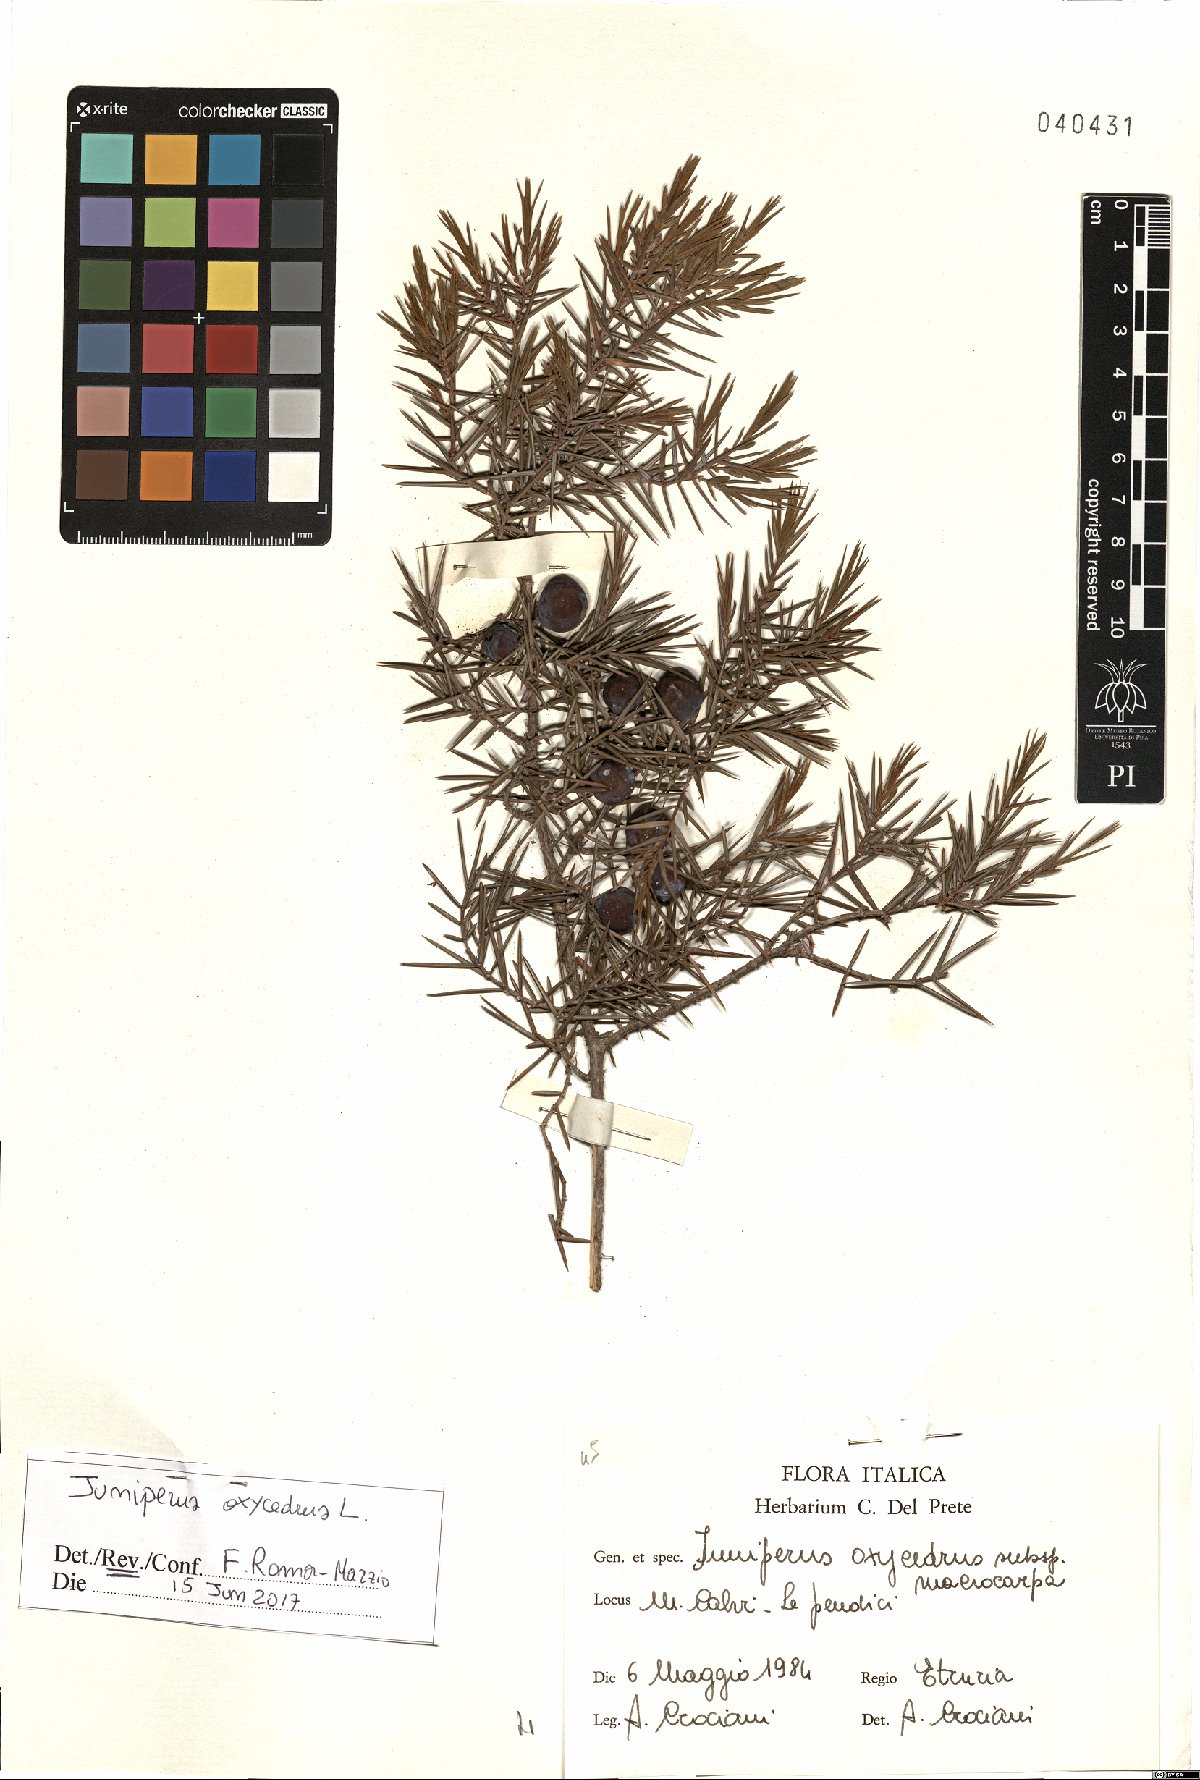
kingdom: Plantae
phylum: Tracheophyta
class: Pinopsida
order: Pinales
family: Cupressaceae
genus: Juniperus
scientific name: Juniperus oxycedrus
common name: Prickly juniper
